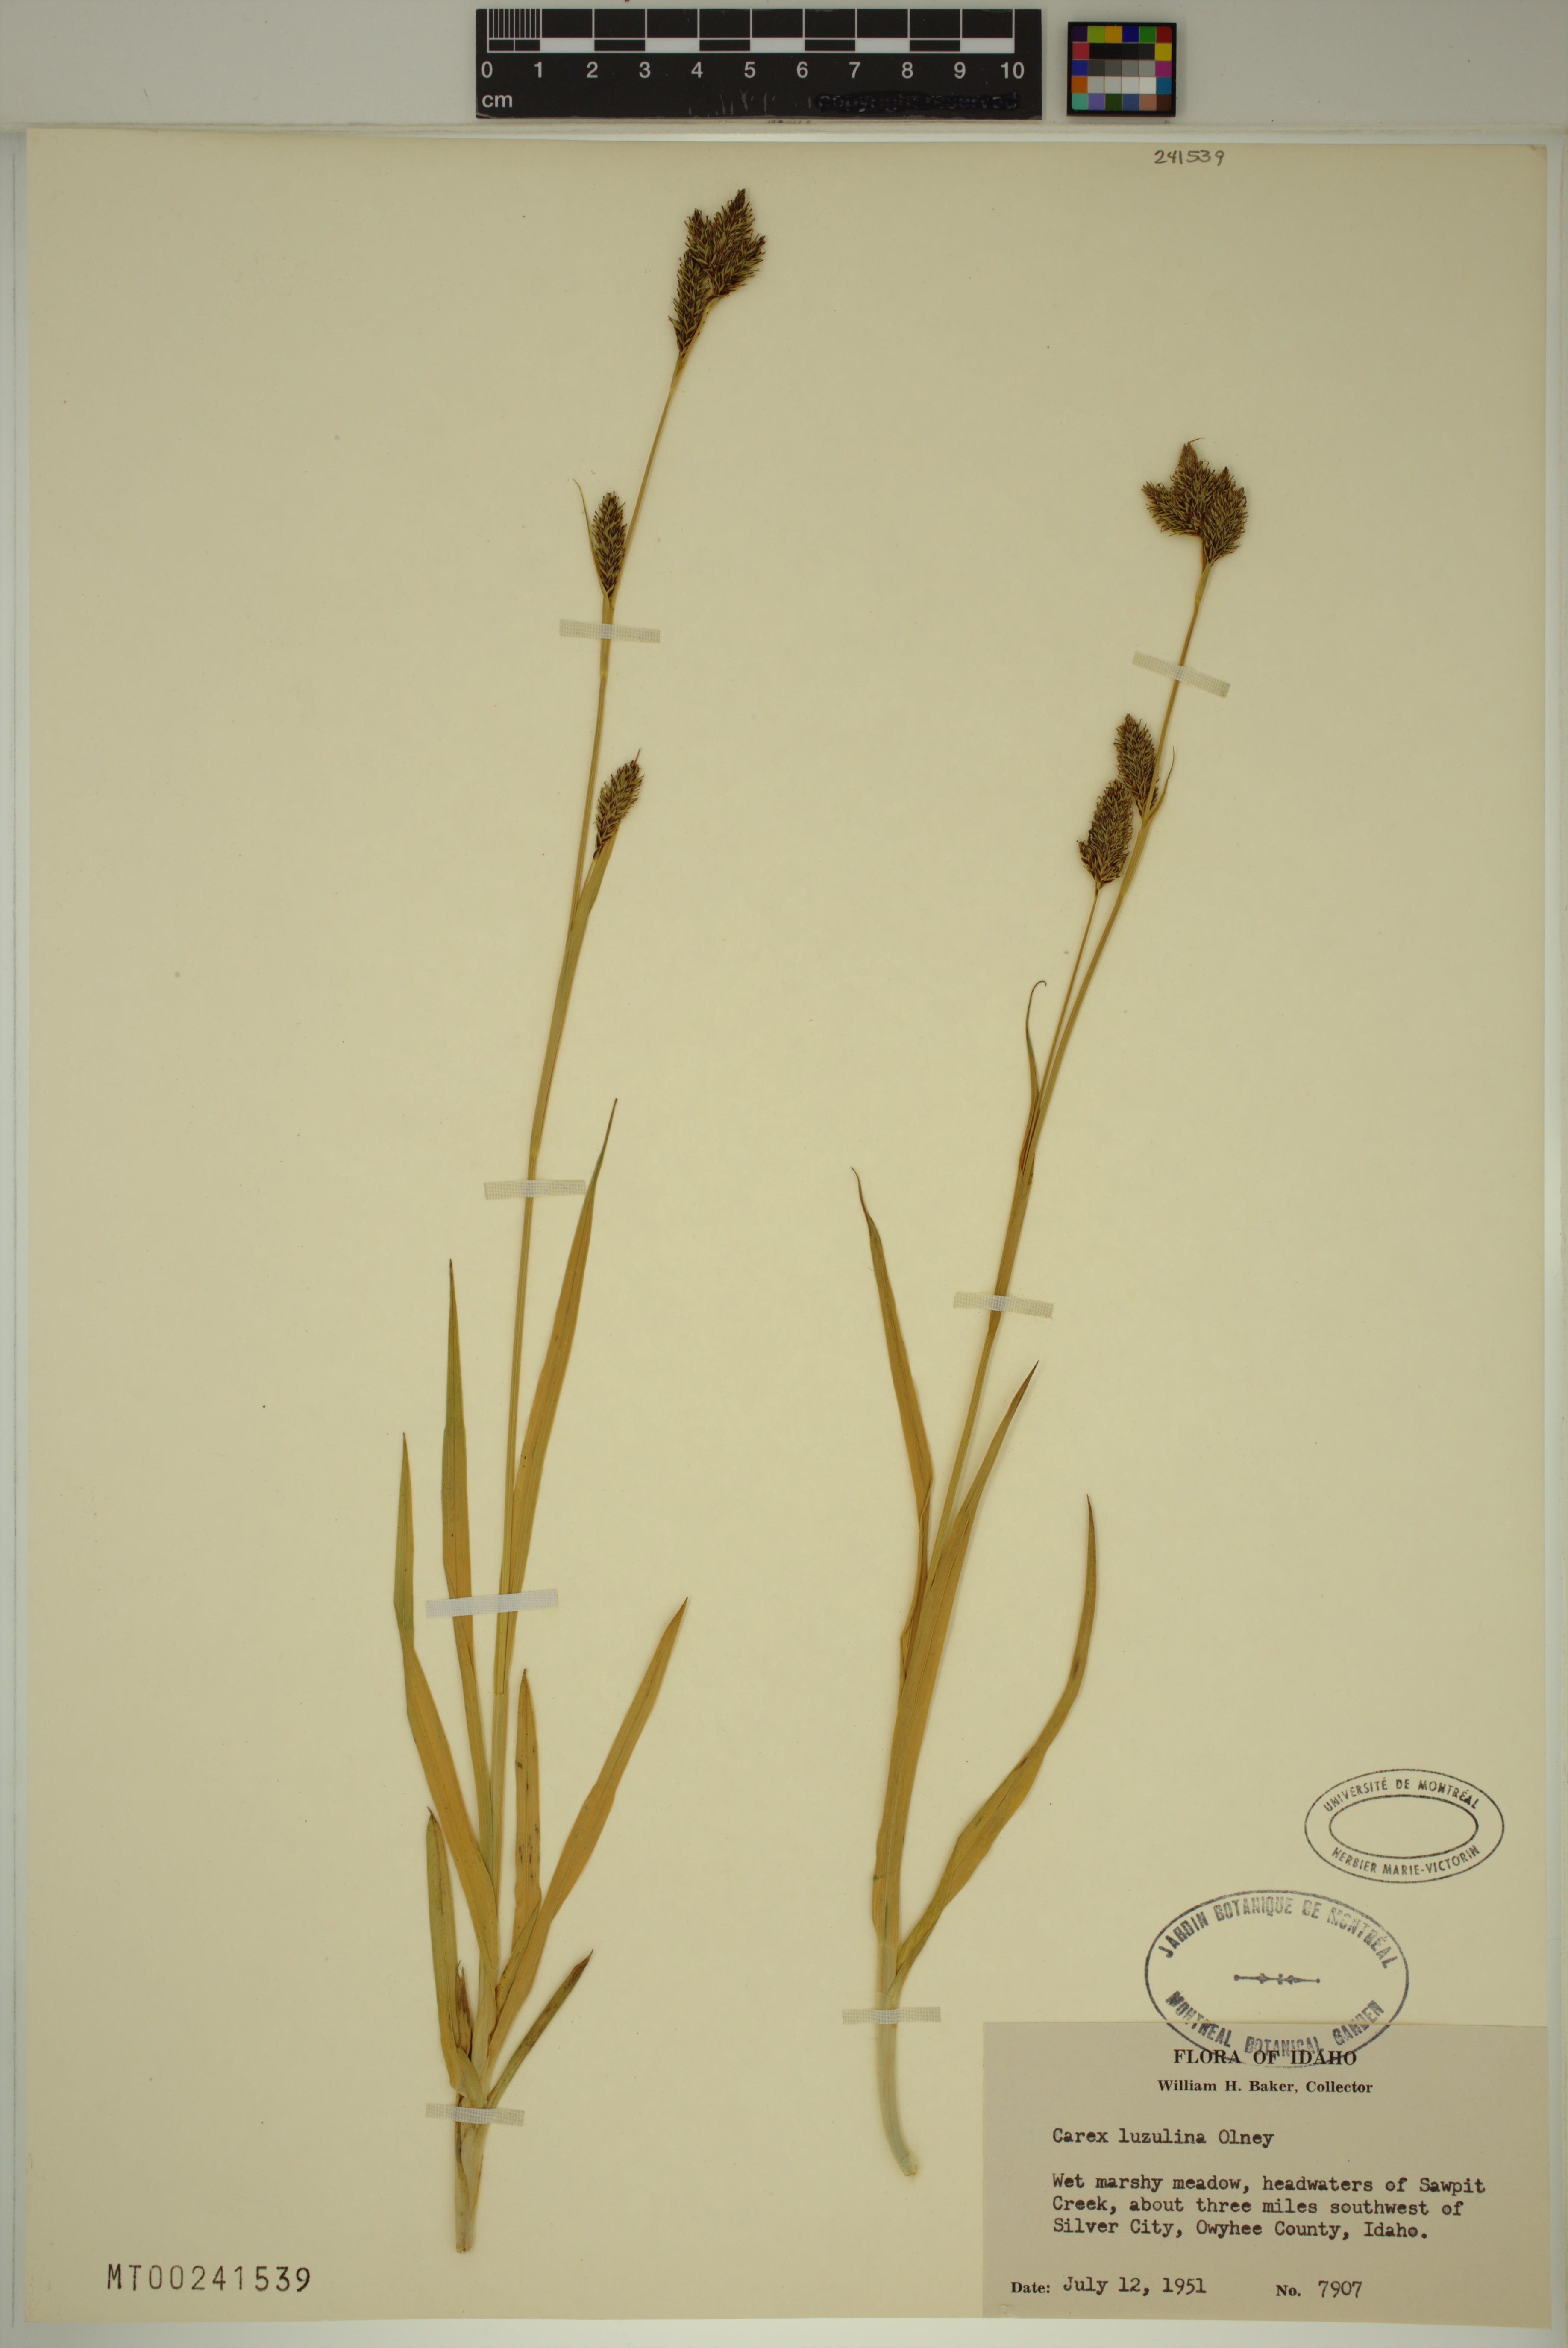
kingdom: Plantae
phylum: Tracheophyta
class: Liliopsida
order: Poales
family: Cyperaceae
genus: Carex
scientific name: Carex luzulina
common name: Spring sedge
